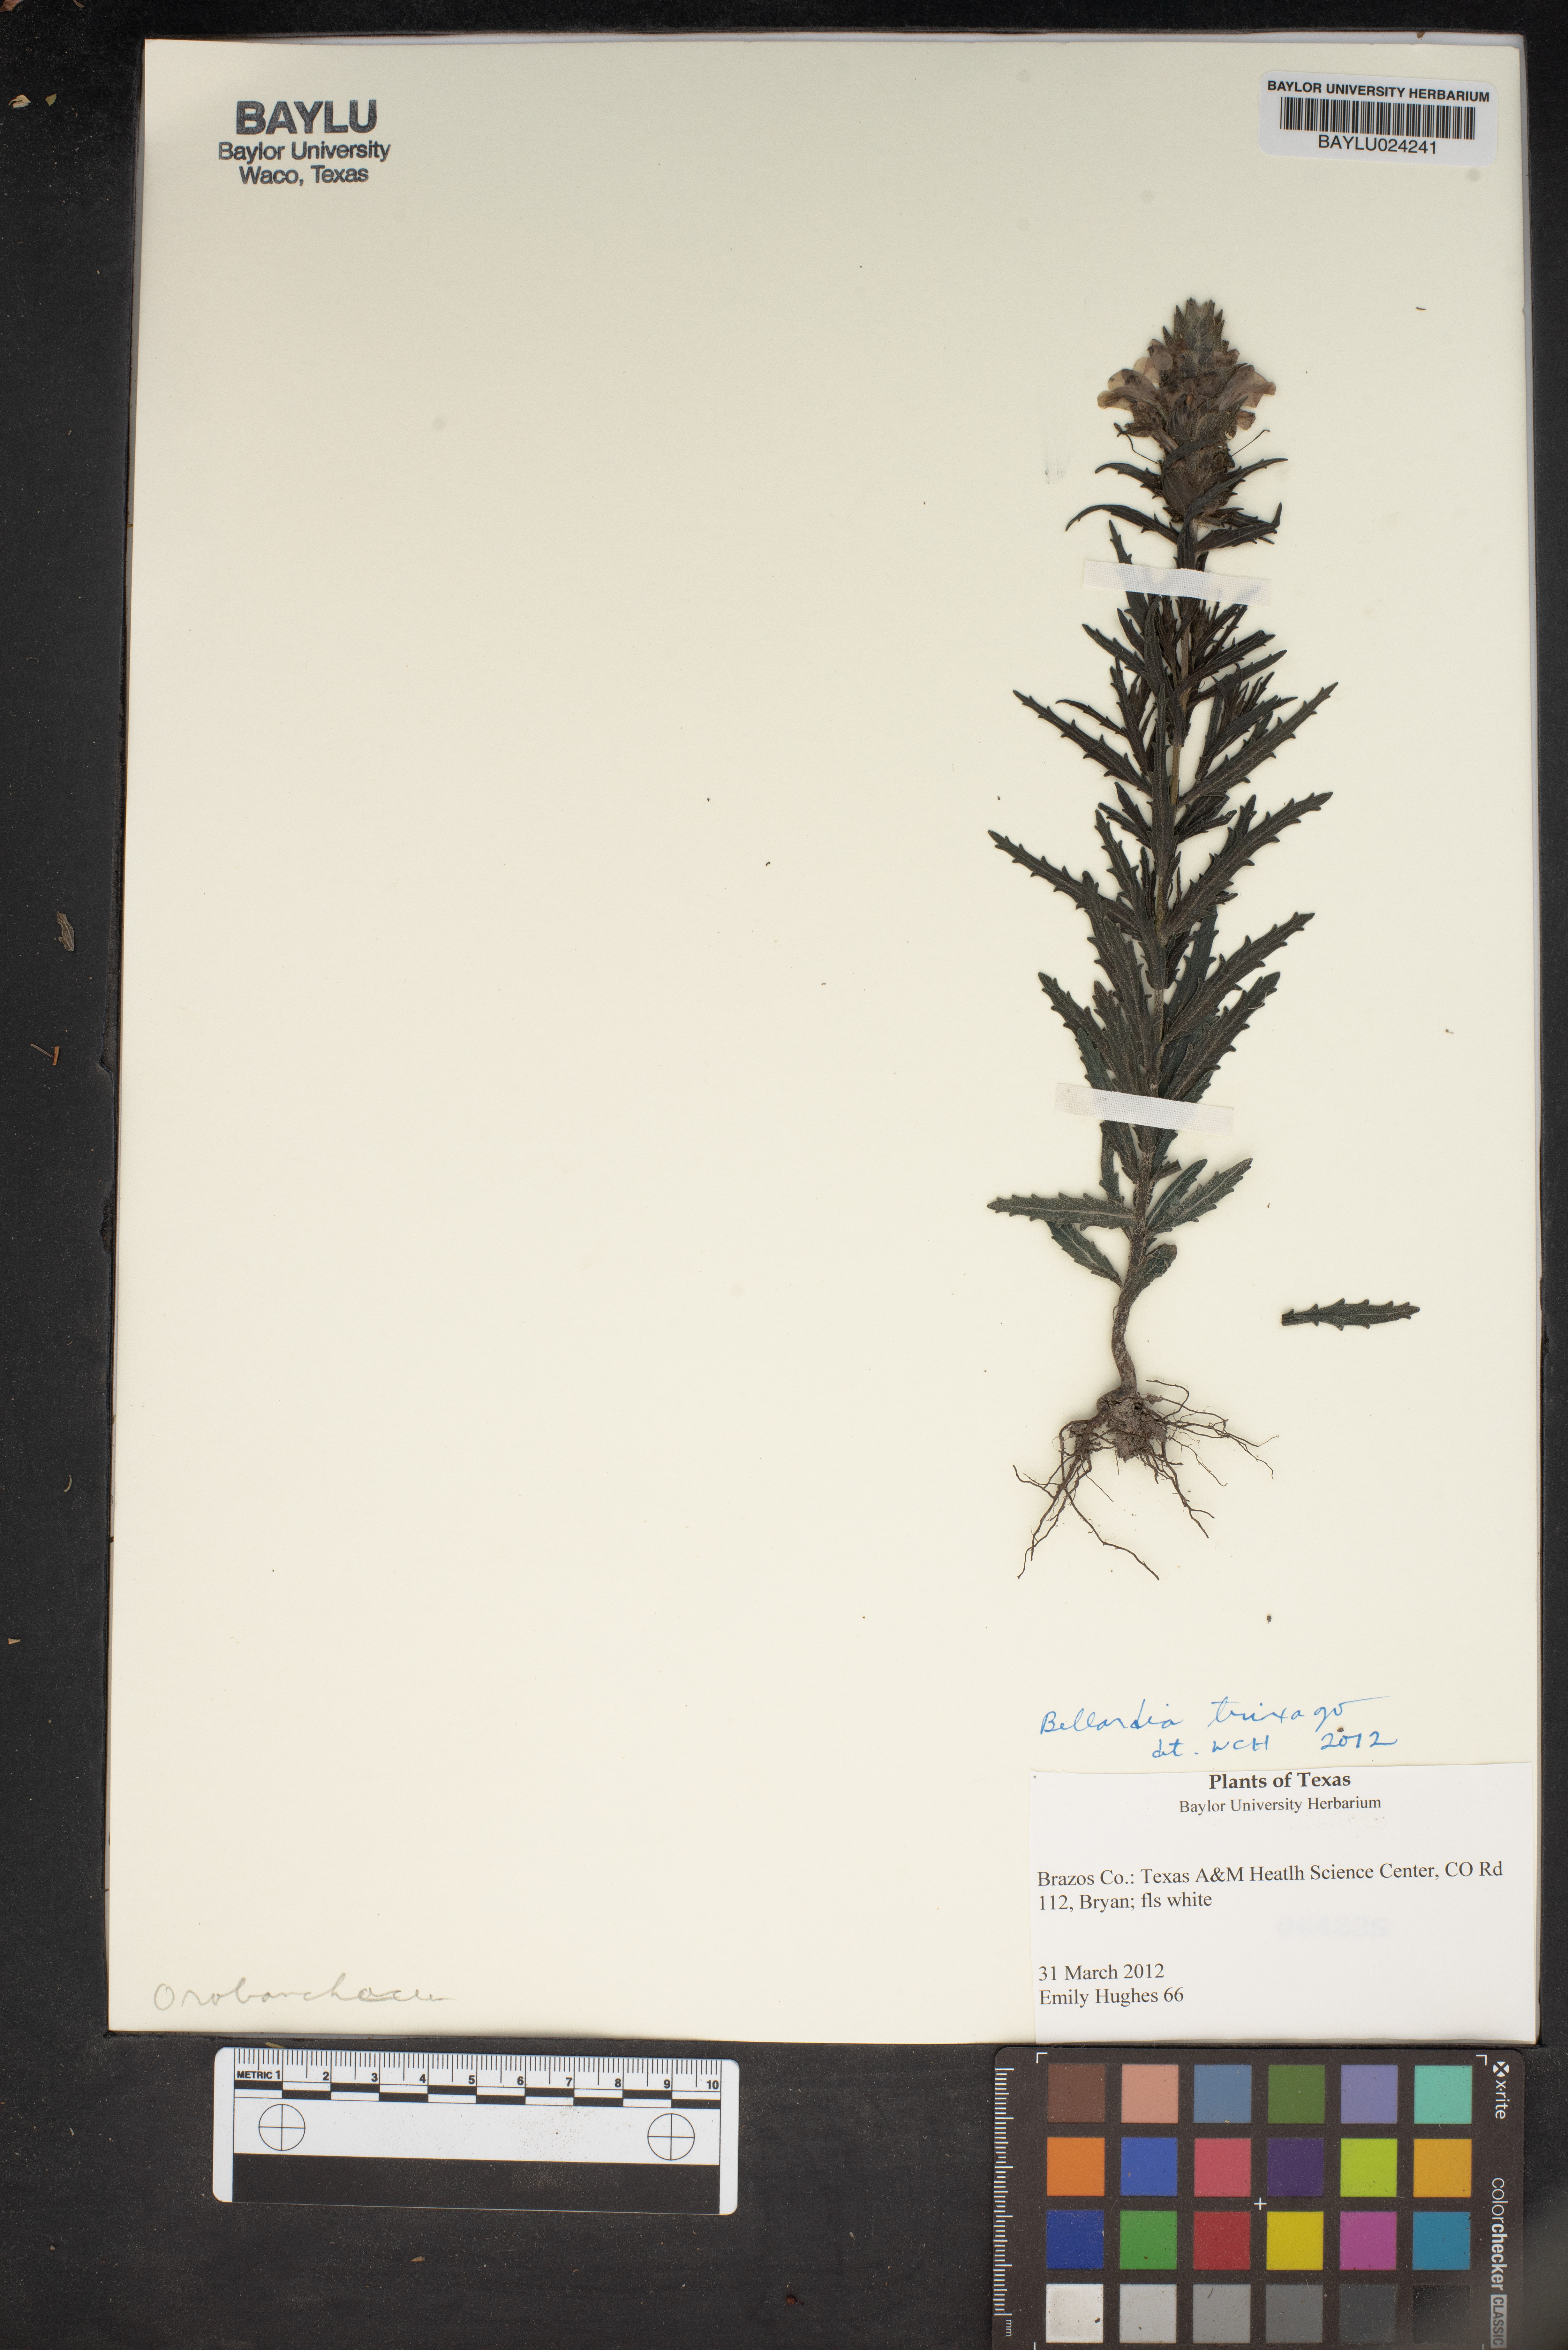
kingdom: Plantae
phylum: Tracheophyta
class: Magnoliopsida
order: Lamiales
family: Orobanchaceae
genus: Bellardia
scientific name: Bellardia trixago
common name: Mediterranean lineseed
